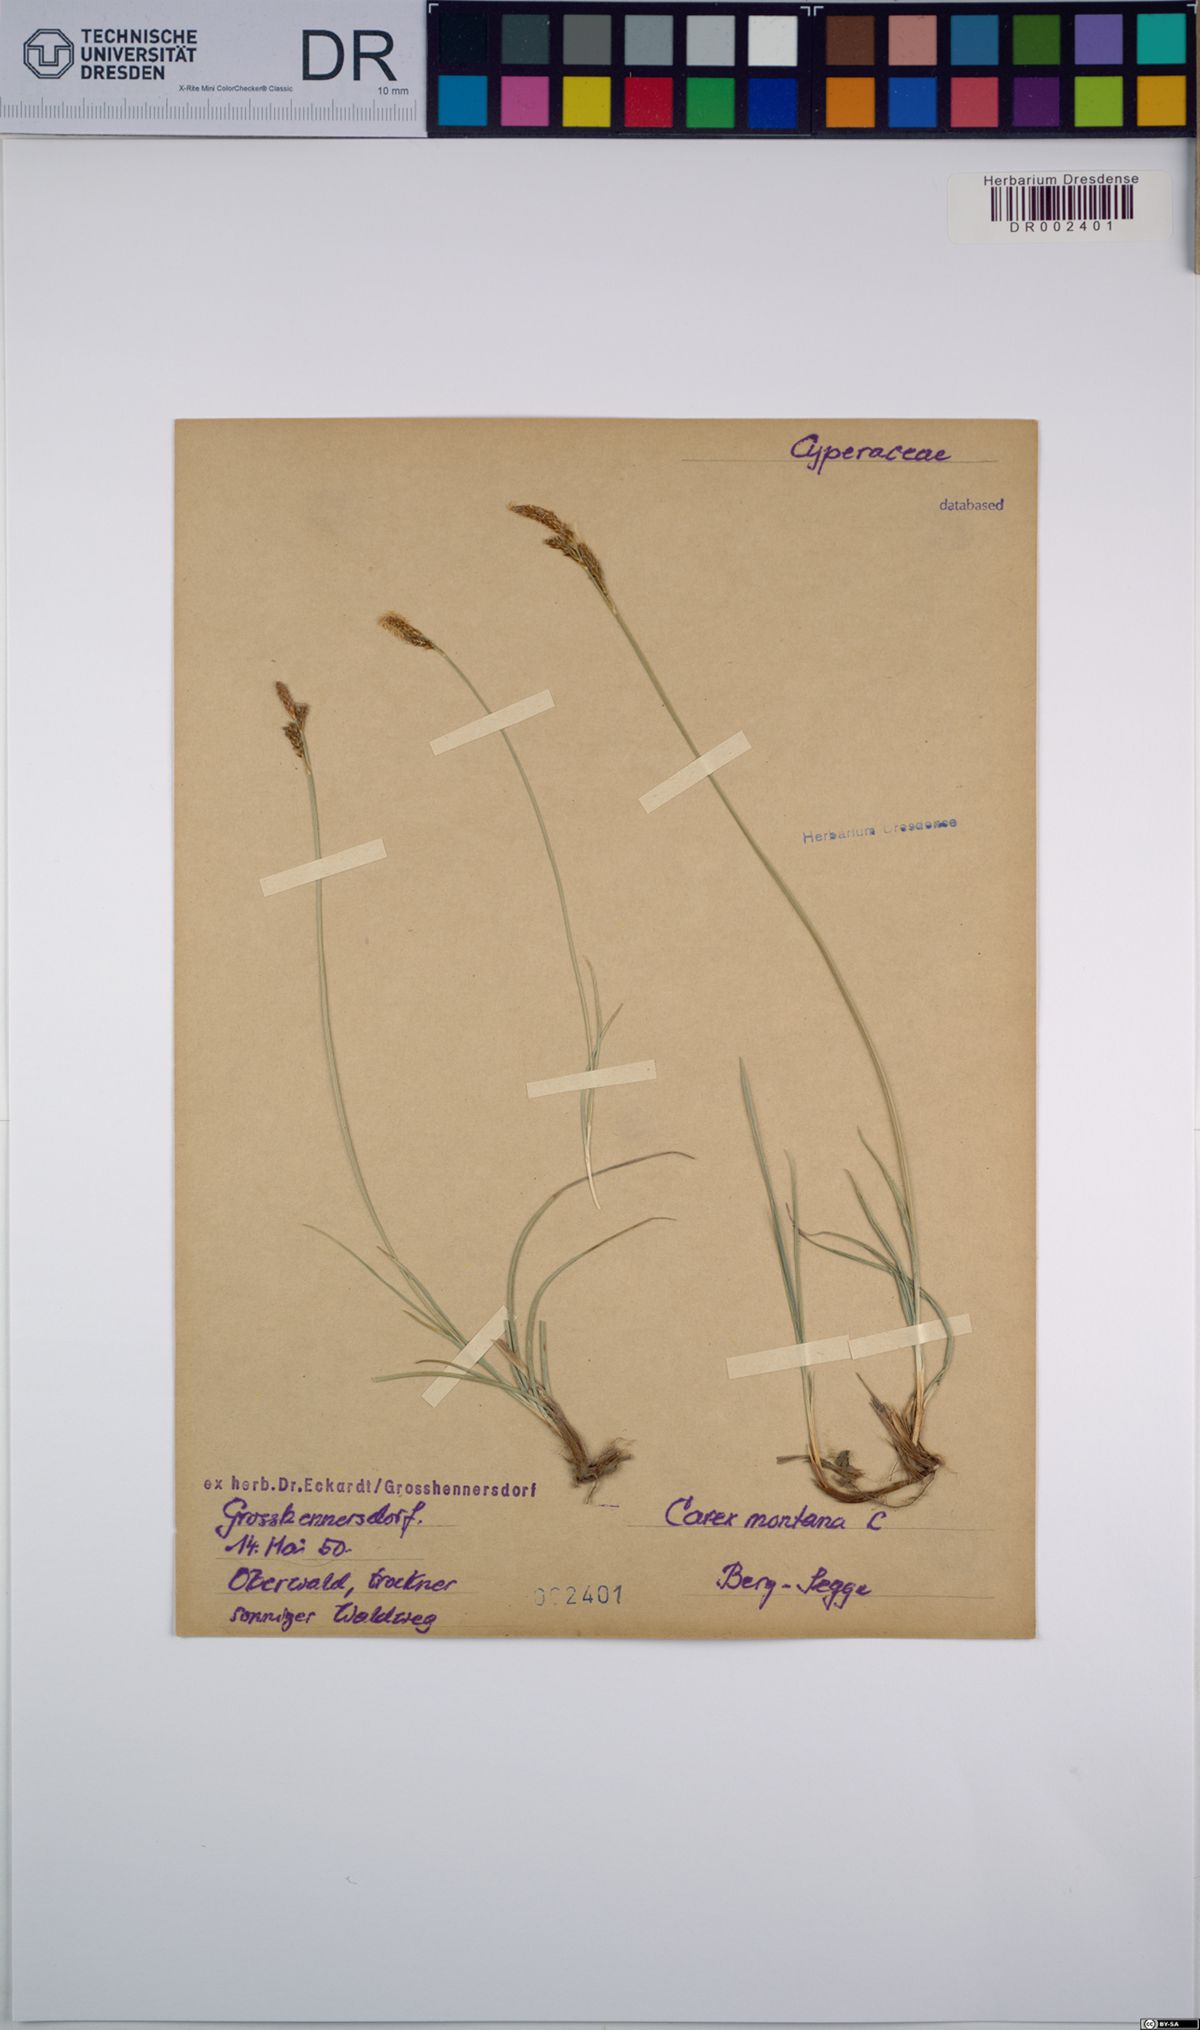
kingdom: Plantae
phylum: Tracheophyta
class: Liliopsida
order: Poales
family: Cyperaceae
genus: Carex
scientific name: Carex montana
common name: Soft-leaved sedge
